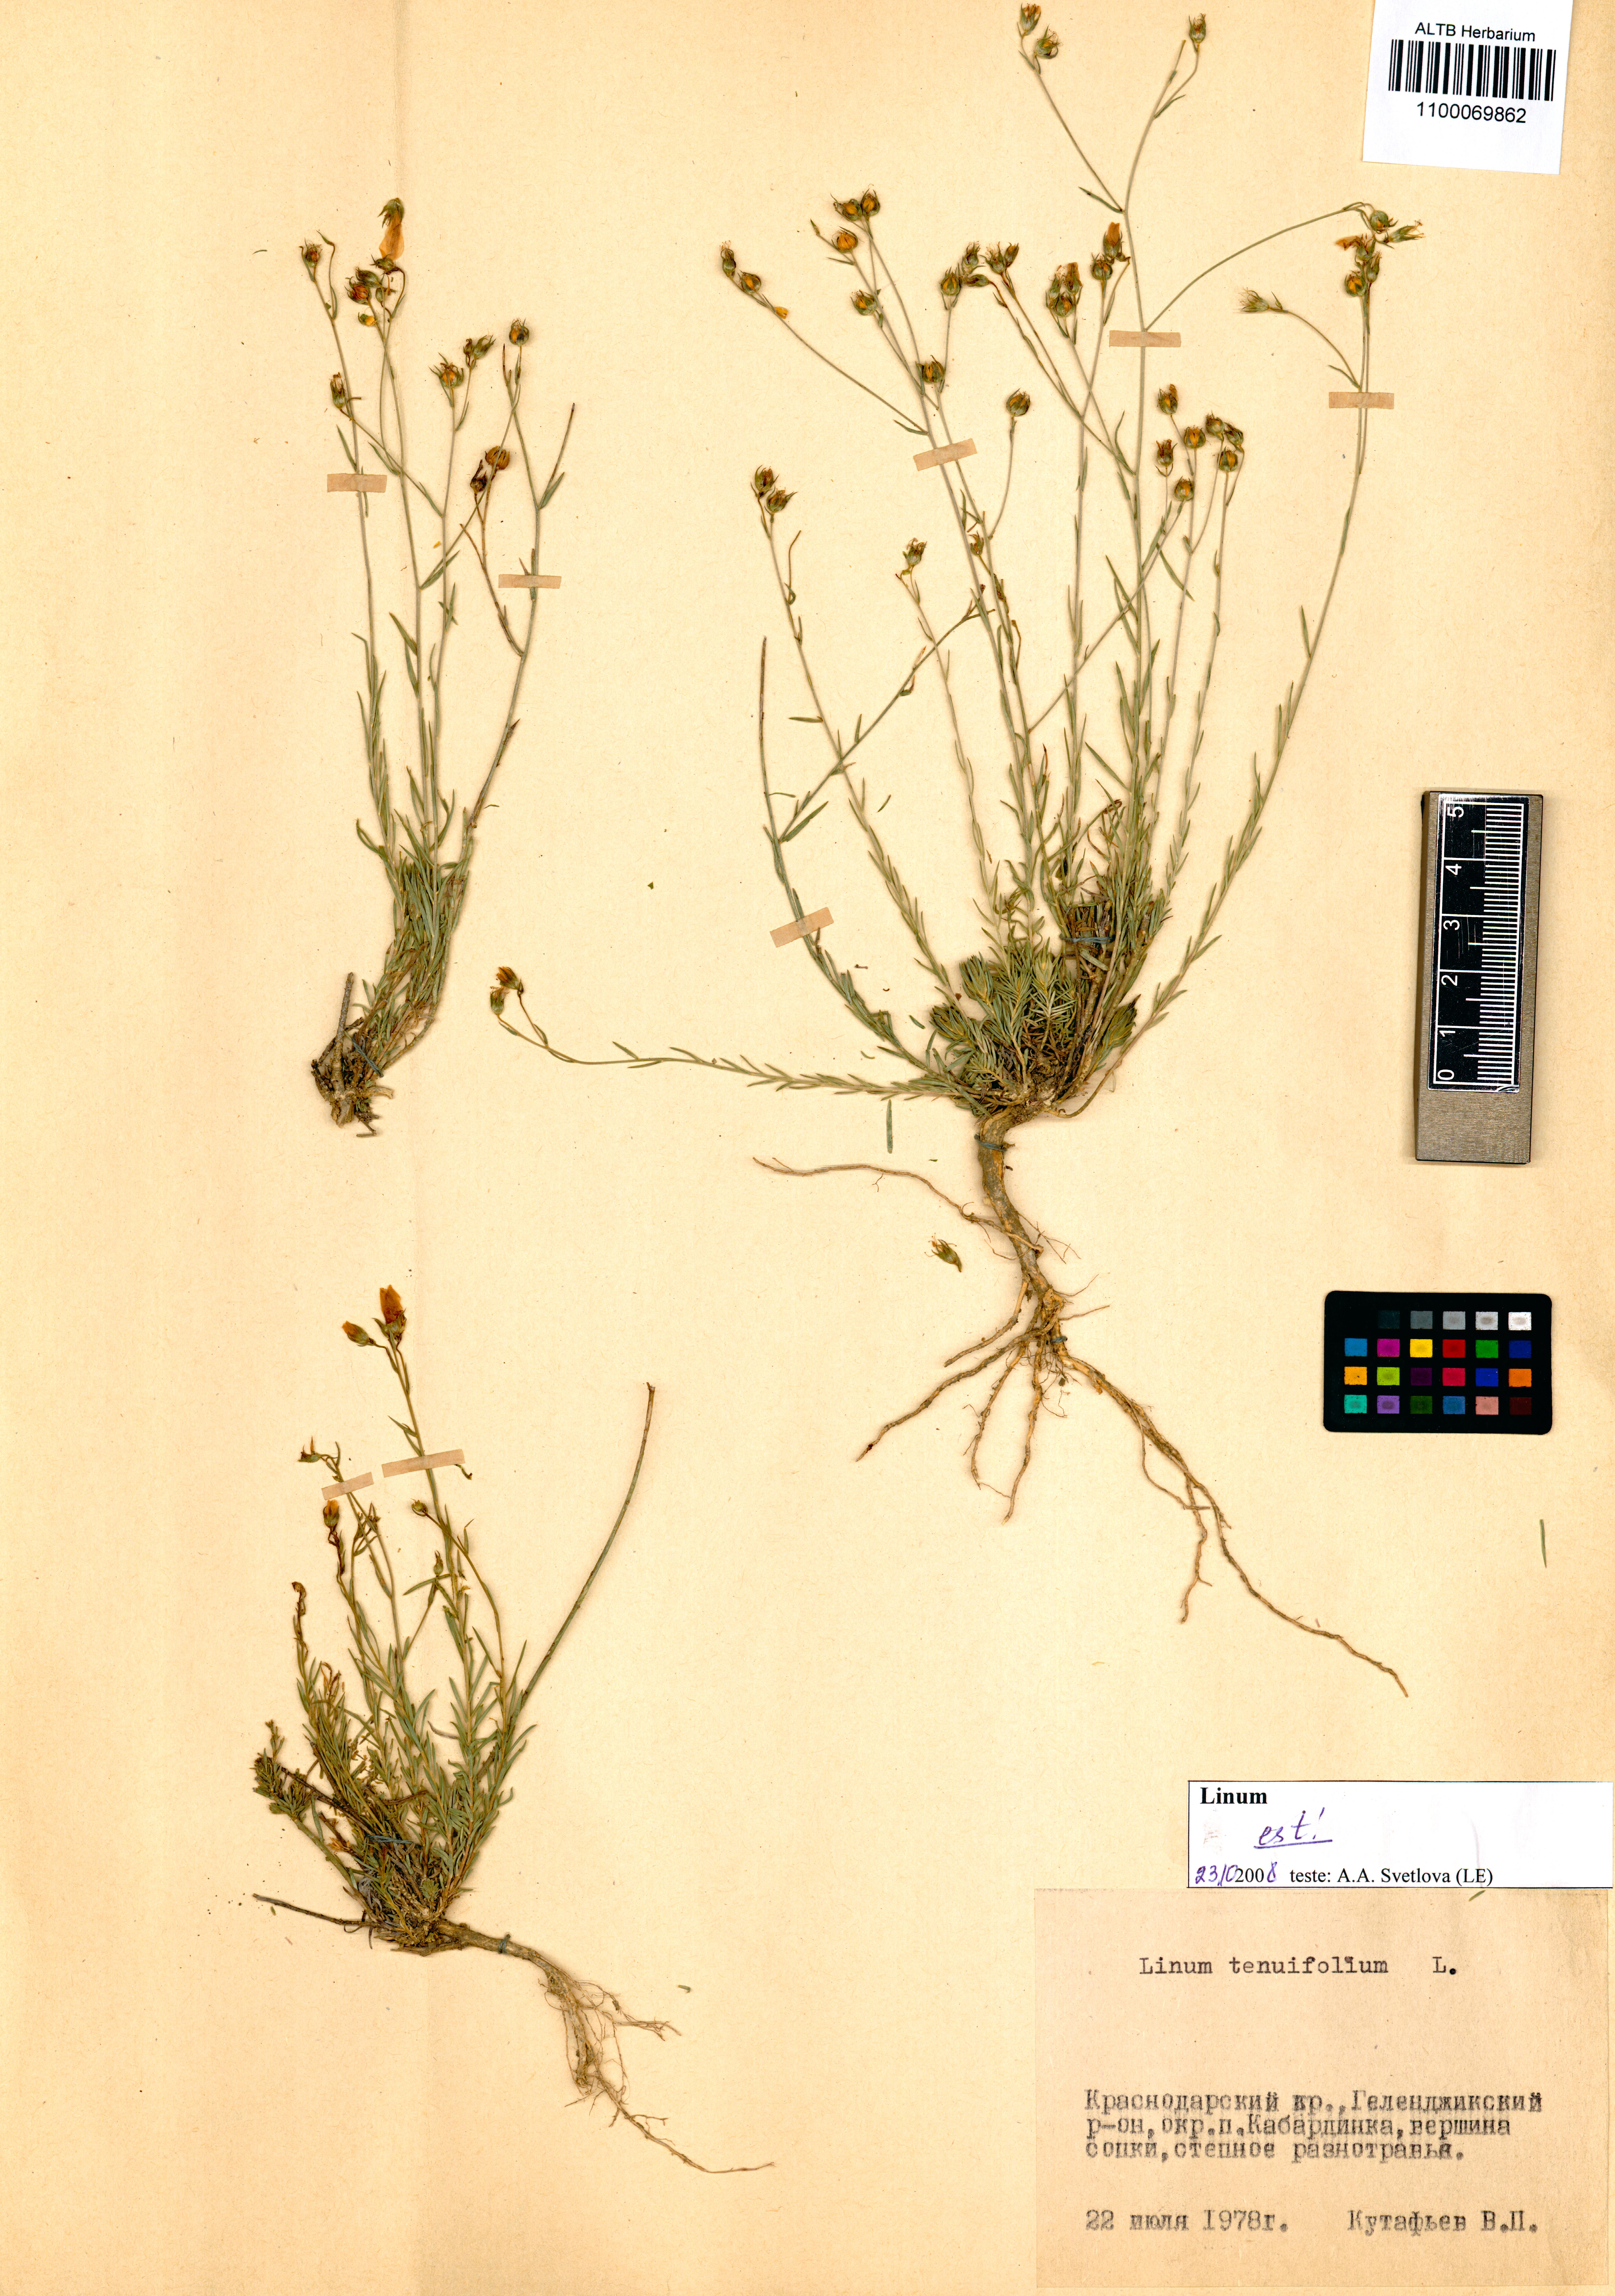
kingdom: Plantae
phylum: Tracheophyta
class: Magnoliopsida
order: Malpighiales
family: Linaceae
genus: Linum
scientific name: Linum tenuifolium
